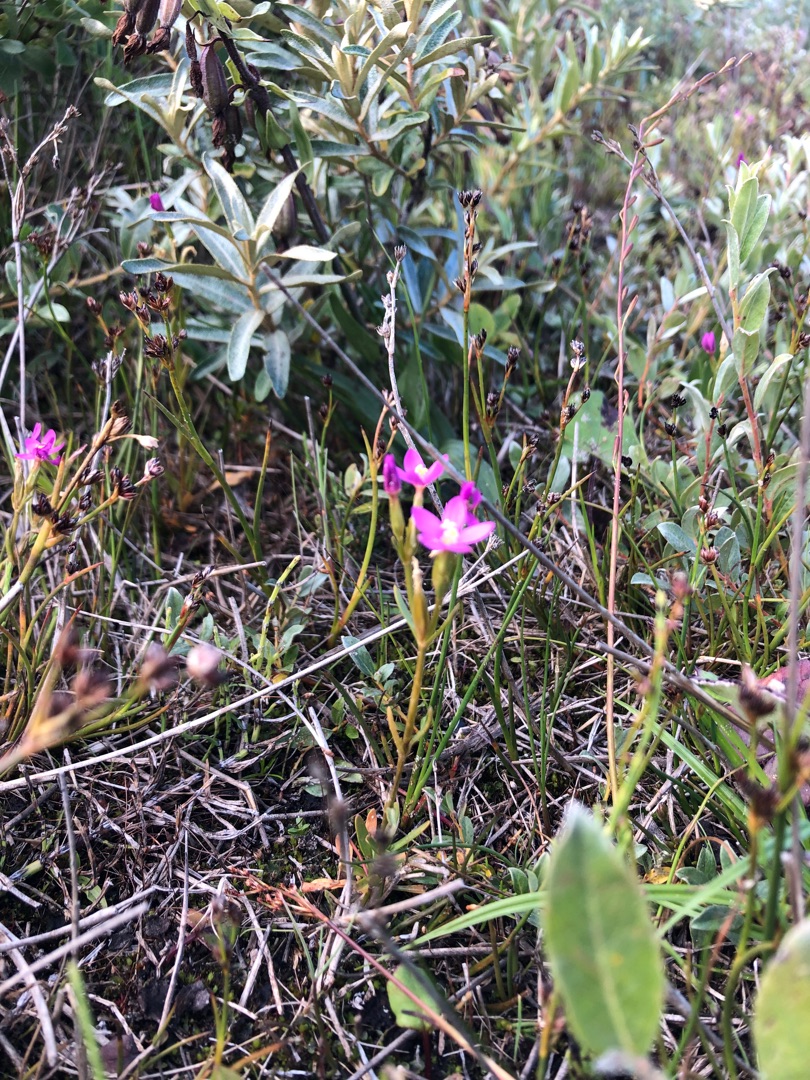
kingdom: Plantae
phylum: Tracheophyta
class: Magnoliopsida
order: Gentianales
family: Gentianaceae
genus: Centaurium
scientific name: Centaurium littorale
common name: Strand-tusindgylden
